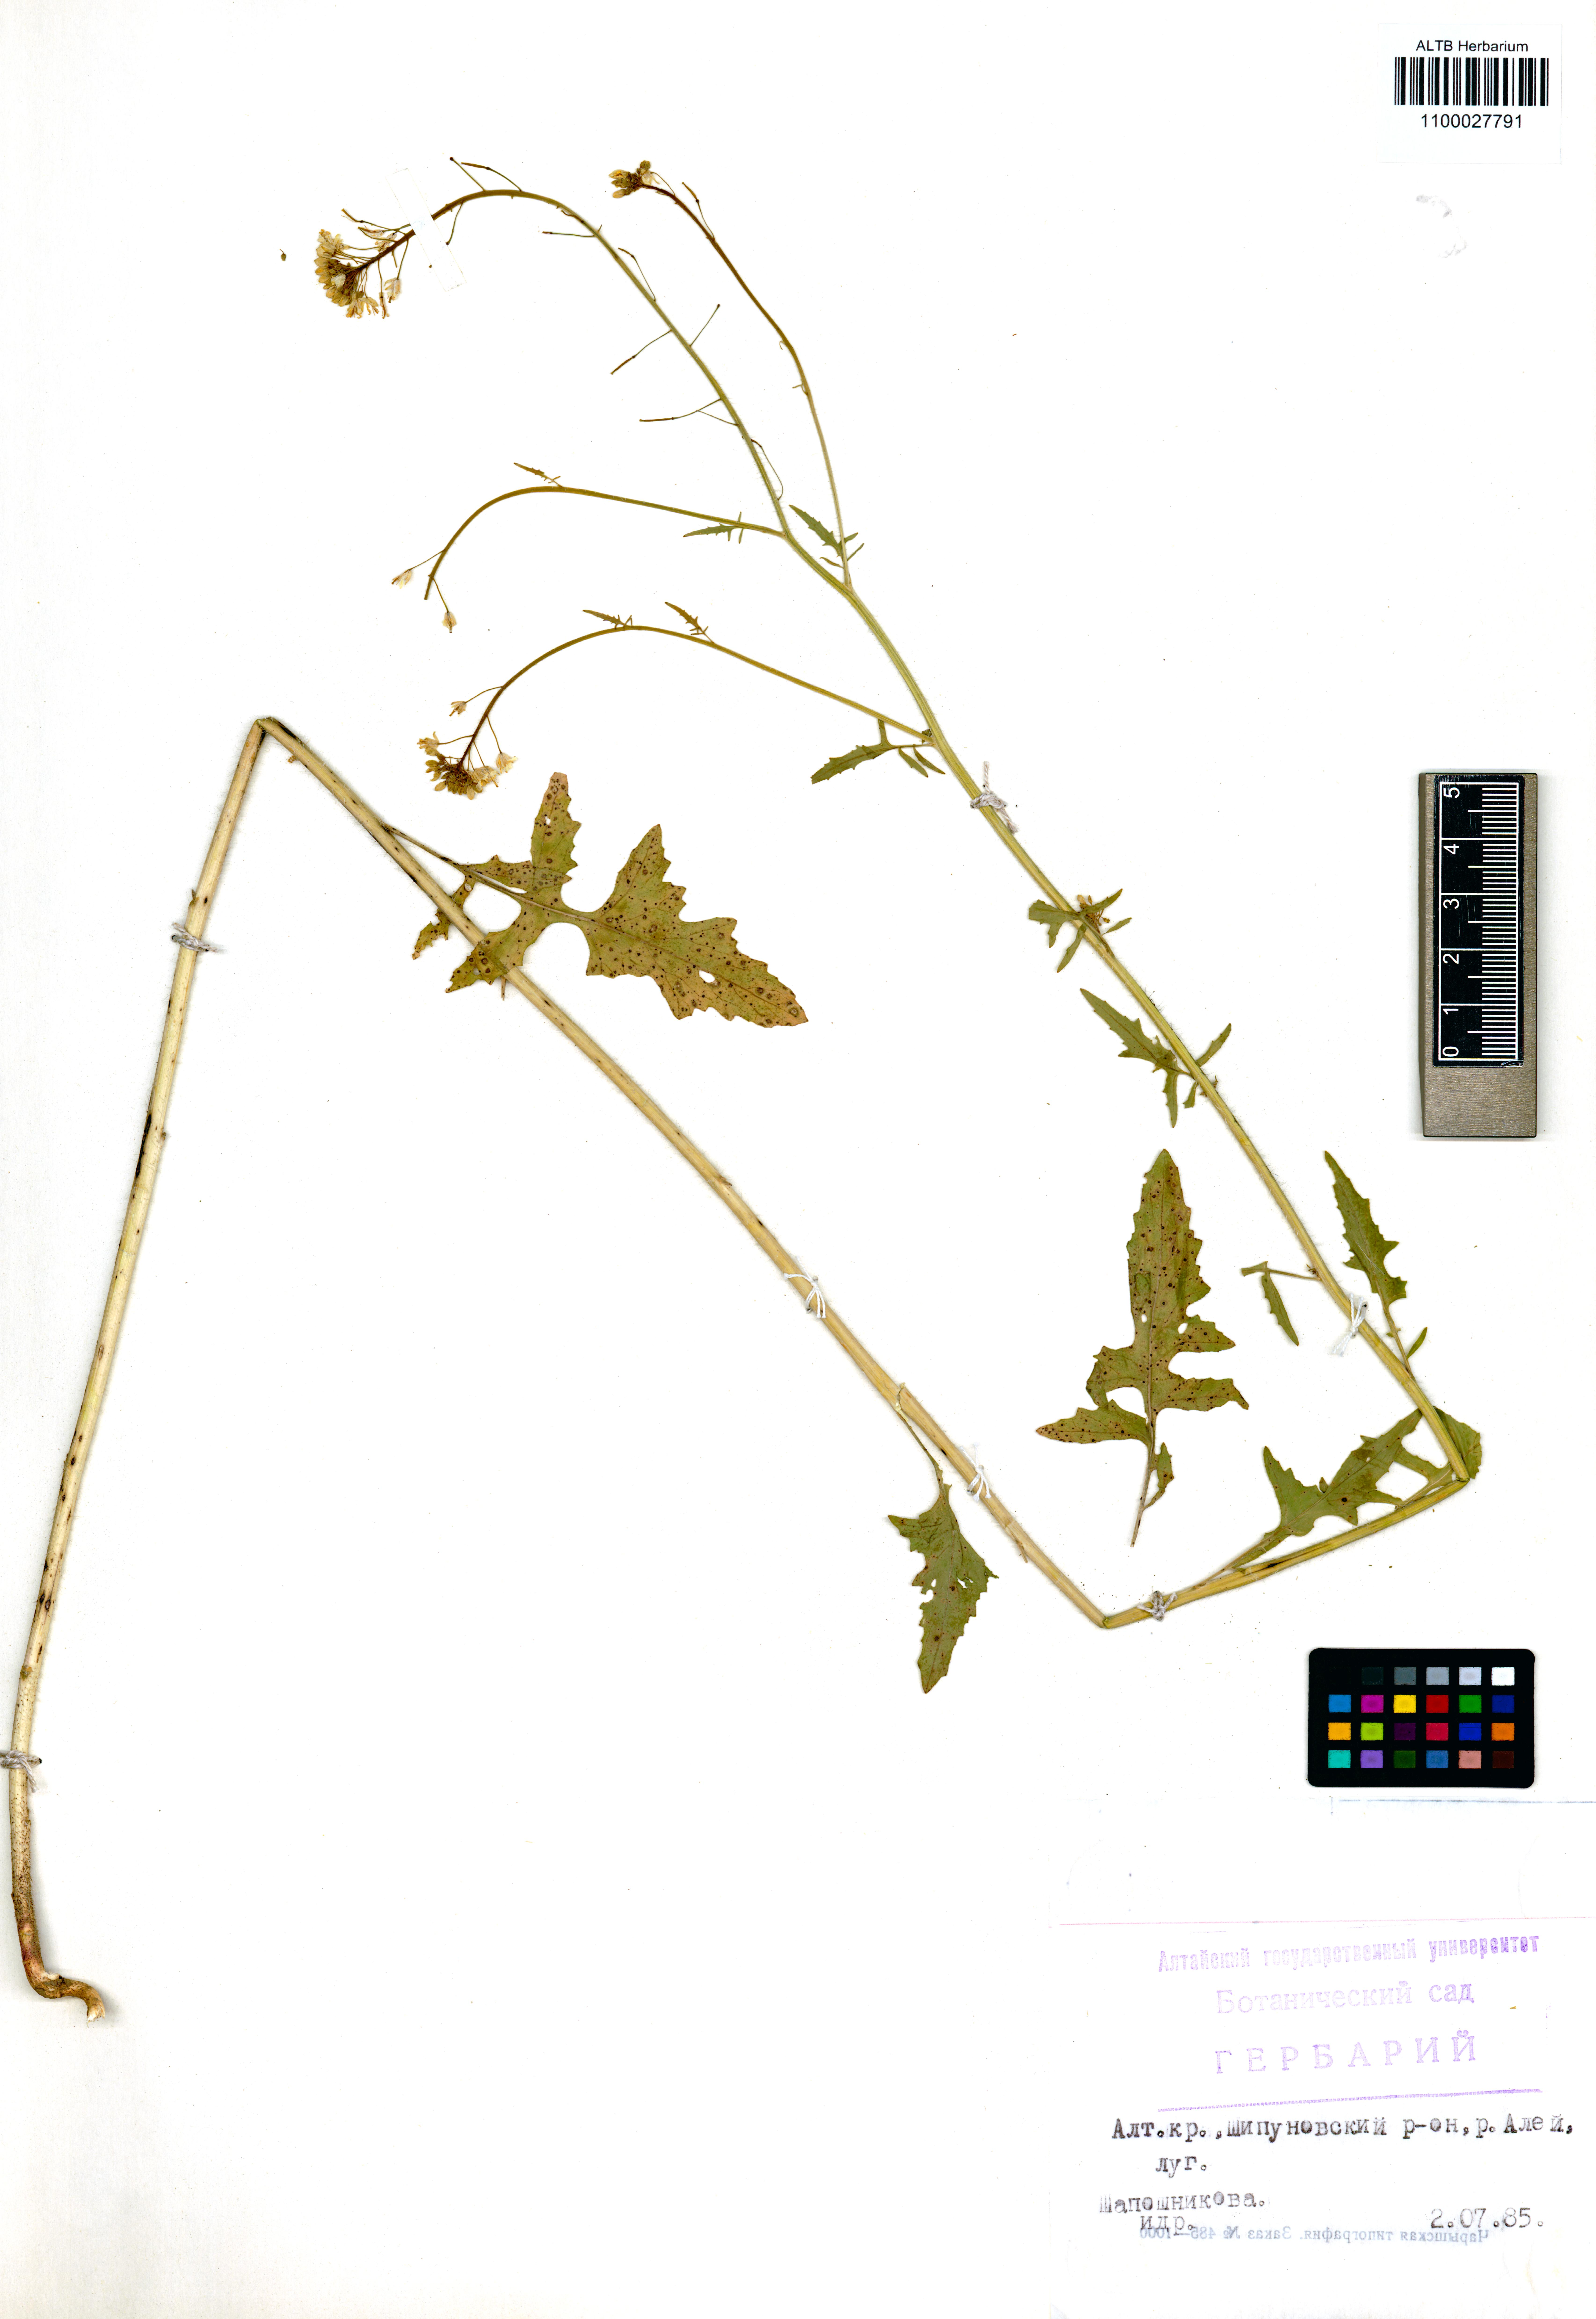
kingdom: Plantae
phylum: Tracheophyta
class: Magnoliopsida
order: Brassicales
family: Brassicaceae
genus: Sisymbrium
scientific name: Sisymbrium loeselii
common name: False london-rocket
